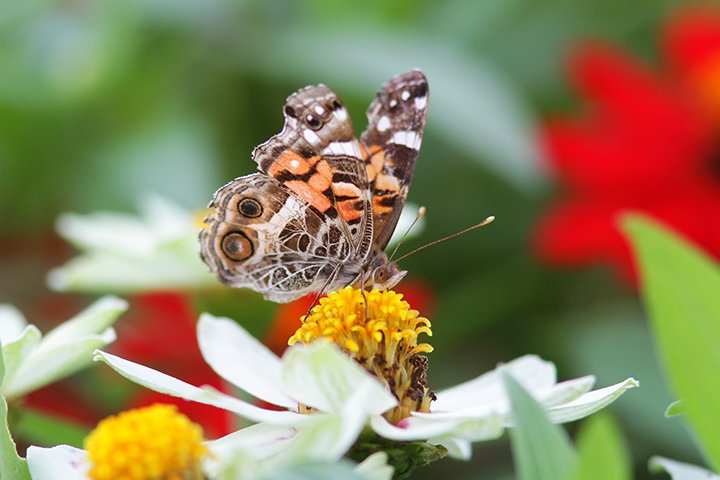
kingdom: Animalia
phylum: Arthropoda
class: Insecta
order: Lepidoptera
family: Nymphalidae
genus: Vanessa
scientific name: Vanessa virginiensis
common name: American Lady
